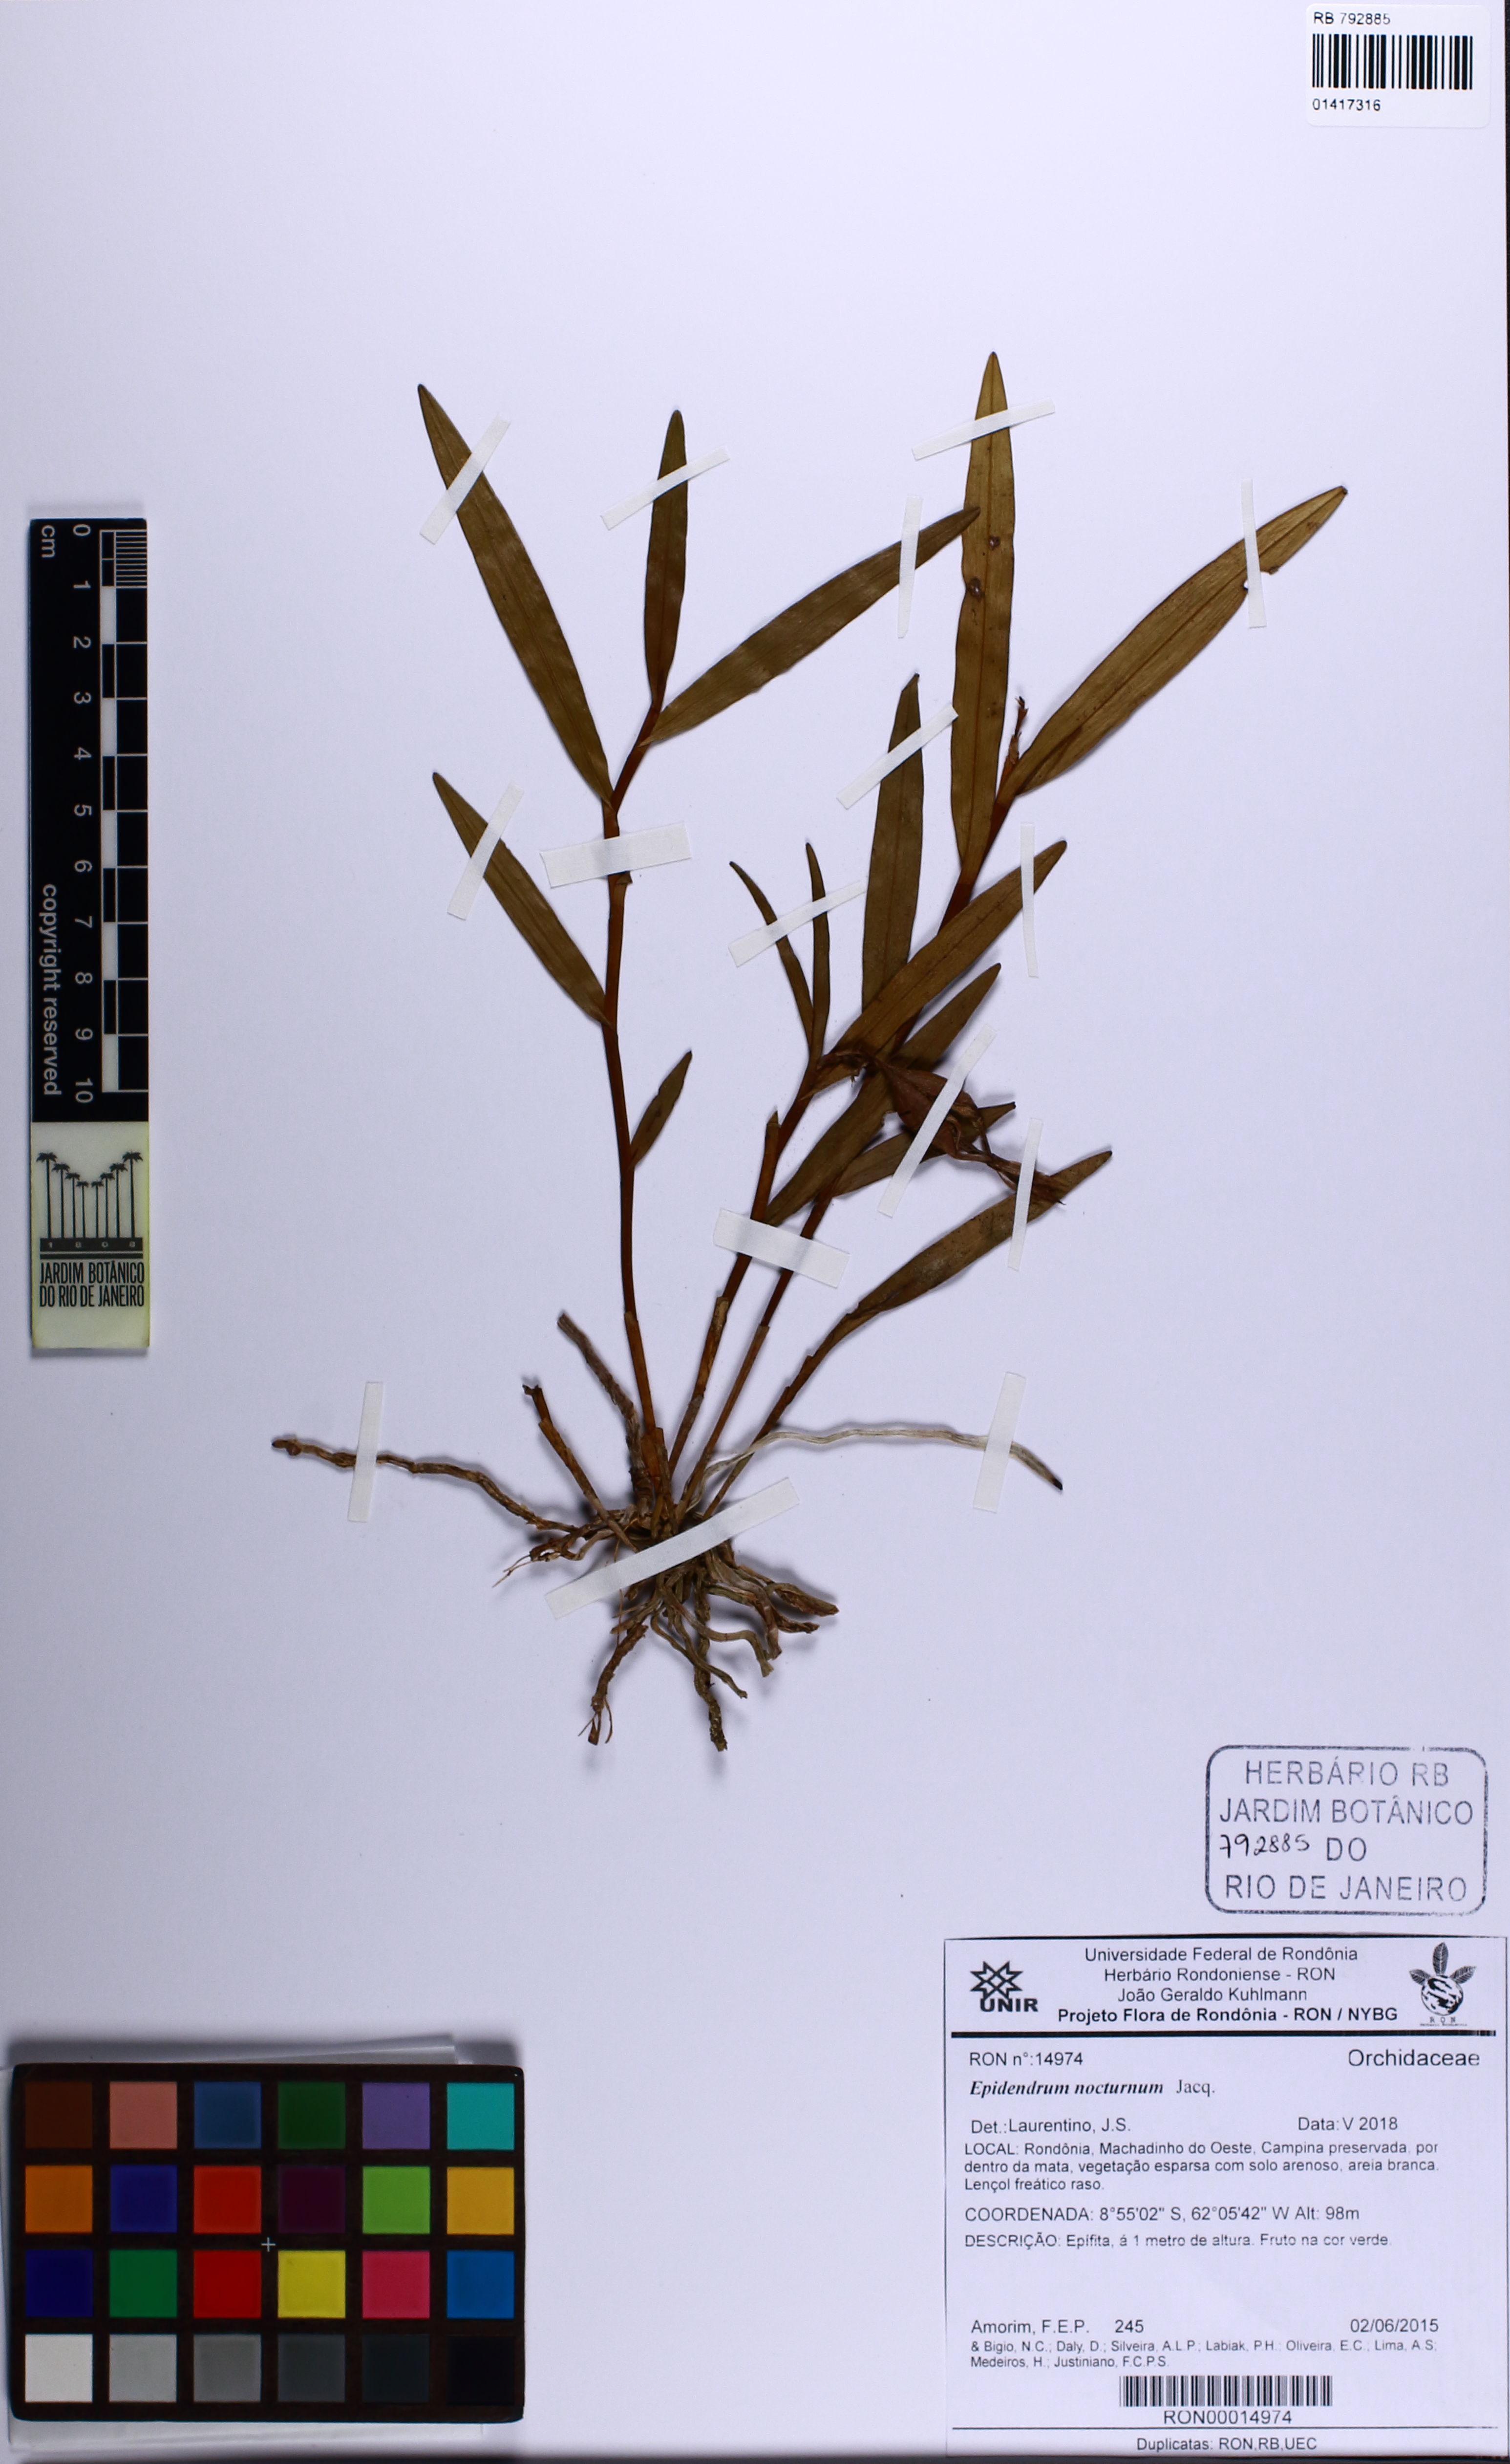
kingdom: Plantae
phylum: Tracheophyta
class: Liliopsida
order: Asparagales
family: Orchidaceae
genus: Epidendrum
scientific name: Epidendrum nocturnum
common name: Night scented orchid
